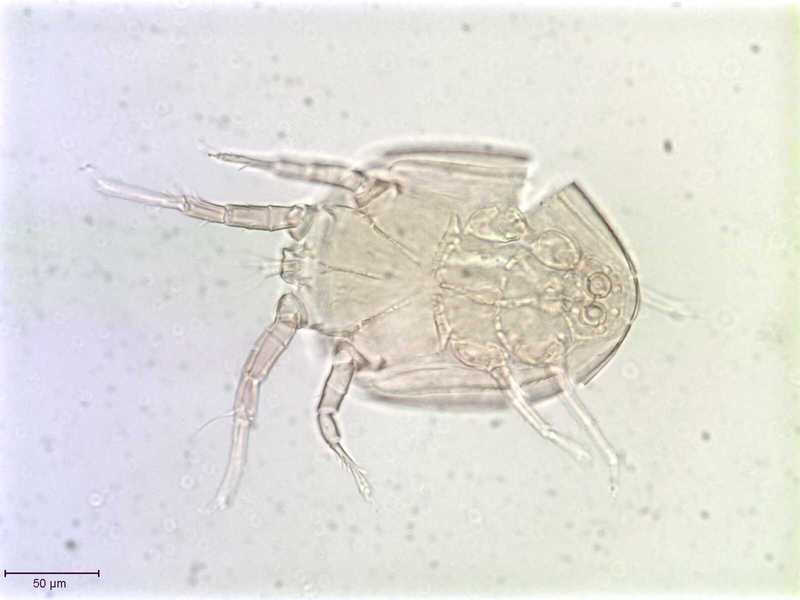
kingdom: Animalia
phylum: Arthropoda
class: Arachnida
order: Sarcoptiformes
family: Histiostomatidae
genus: Capronomoia
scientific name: Capronomoia sphaerocerae
